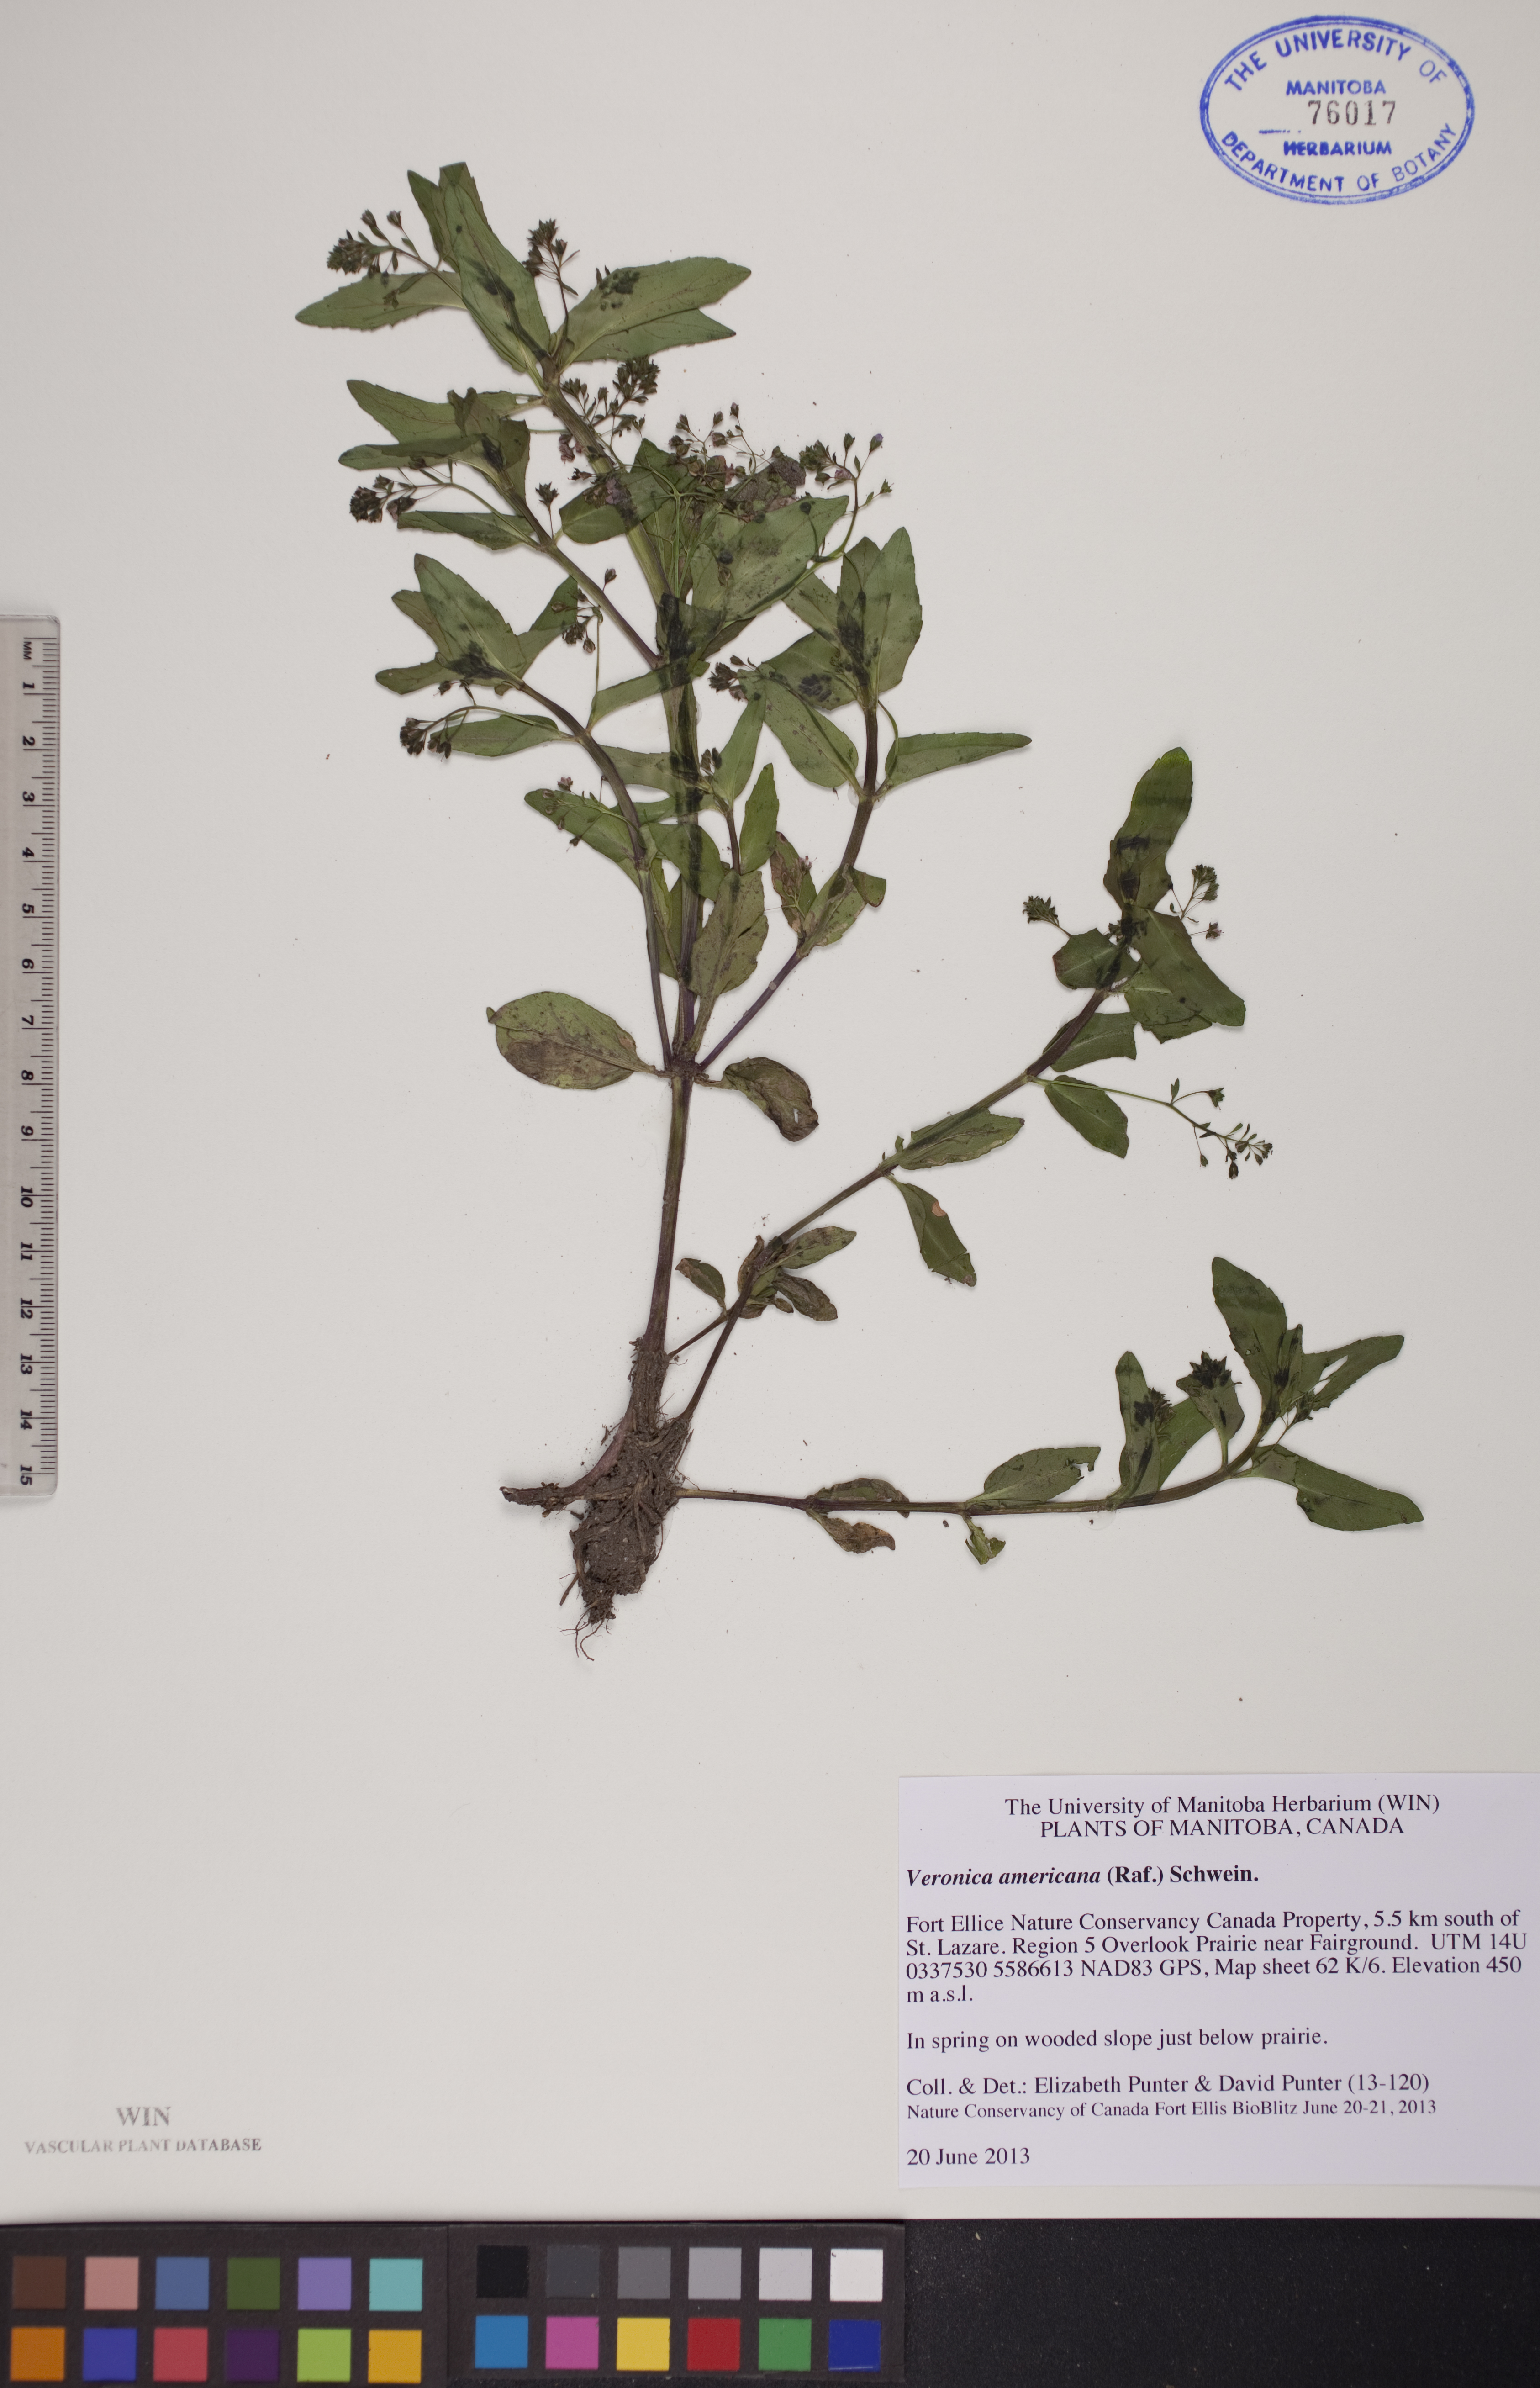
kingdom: Plantae
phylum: Tracheophyta
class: Magnoliopsida
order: Lamiales
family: Plantaginaceae
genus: Veronica
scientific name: Veronica americana
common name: American brooklime
